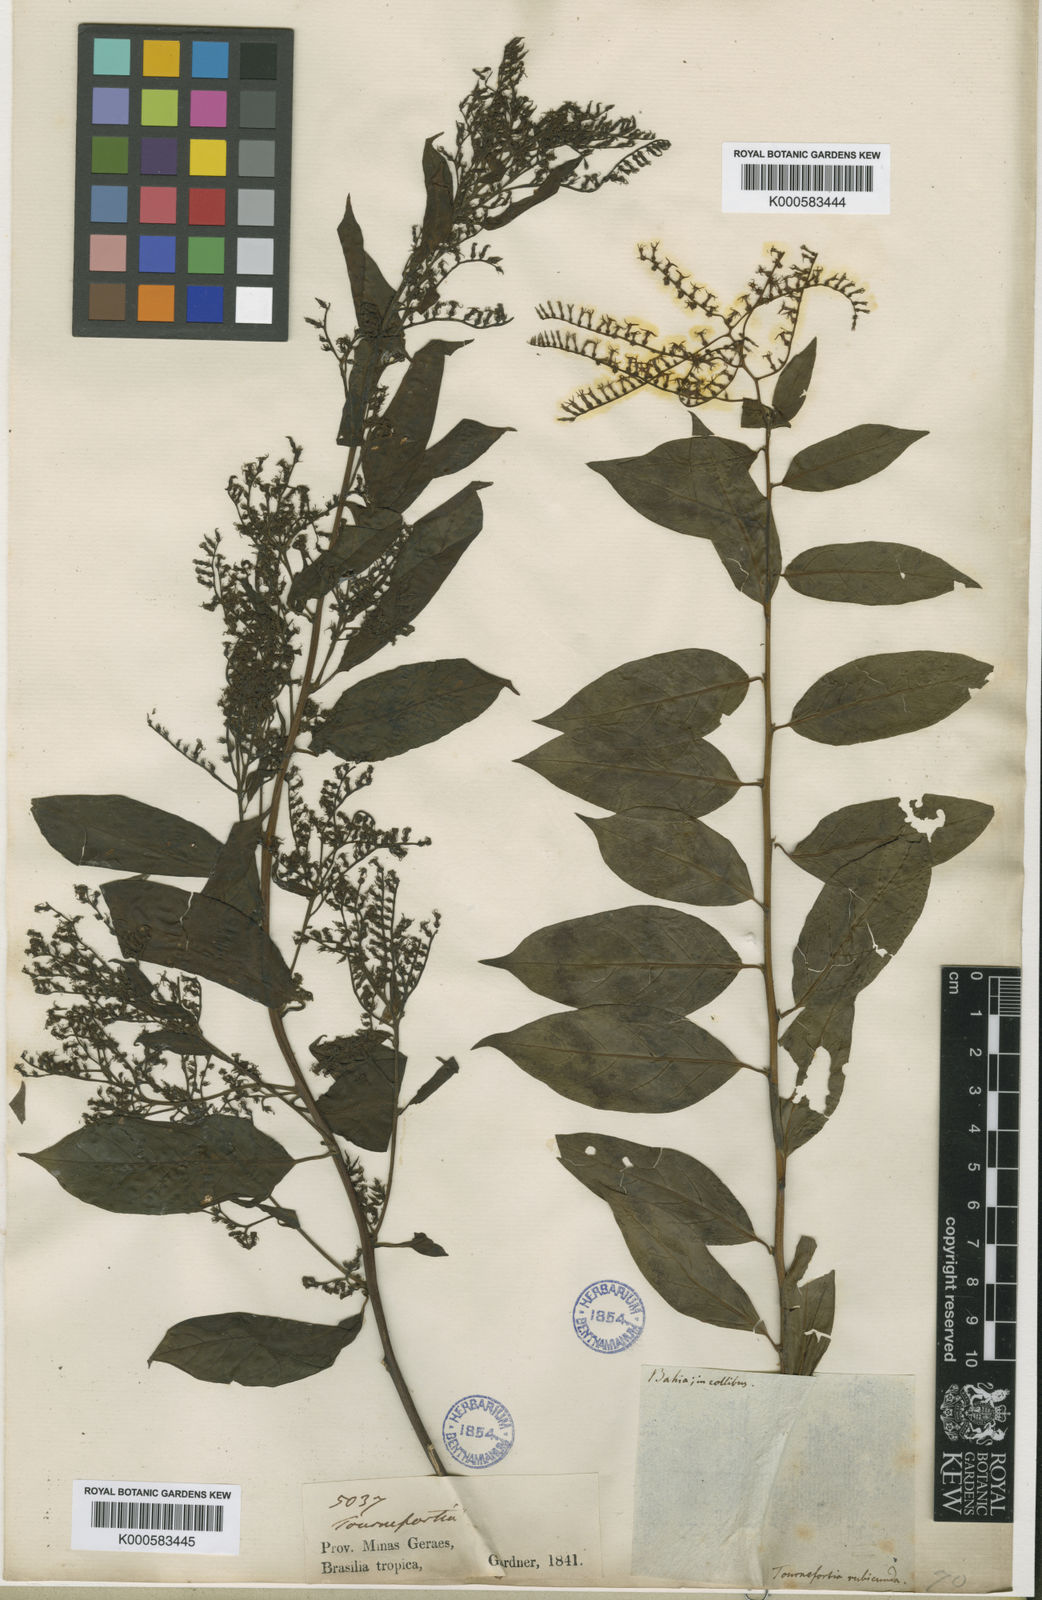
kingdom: Plantae
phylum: Tracheophyta
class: Magnoliopsida
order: Boraginales
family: Heliotropiaceae
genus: Myriopus
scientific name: Myriopus breviflorus
